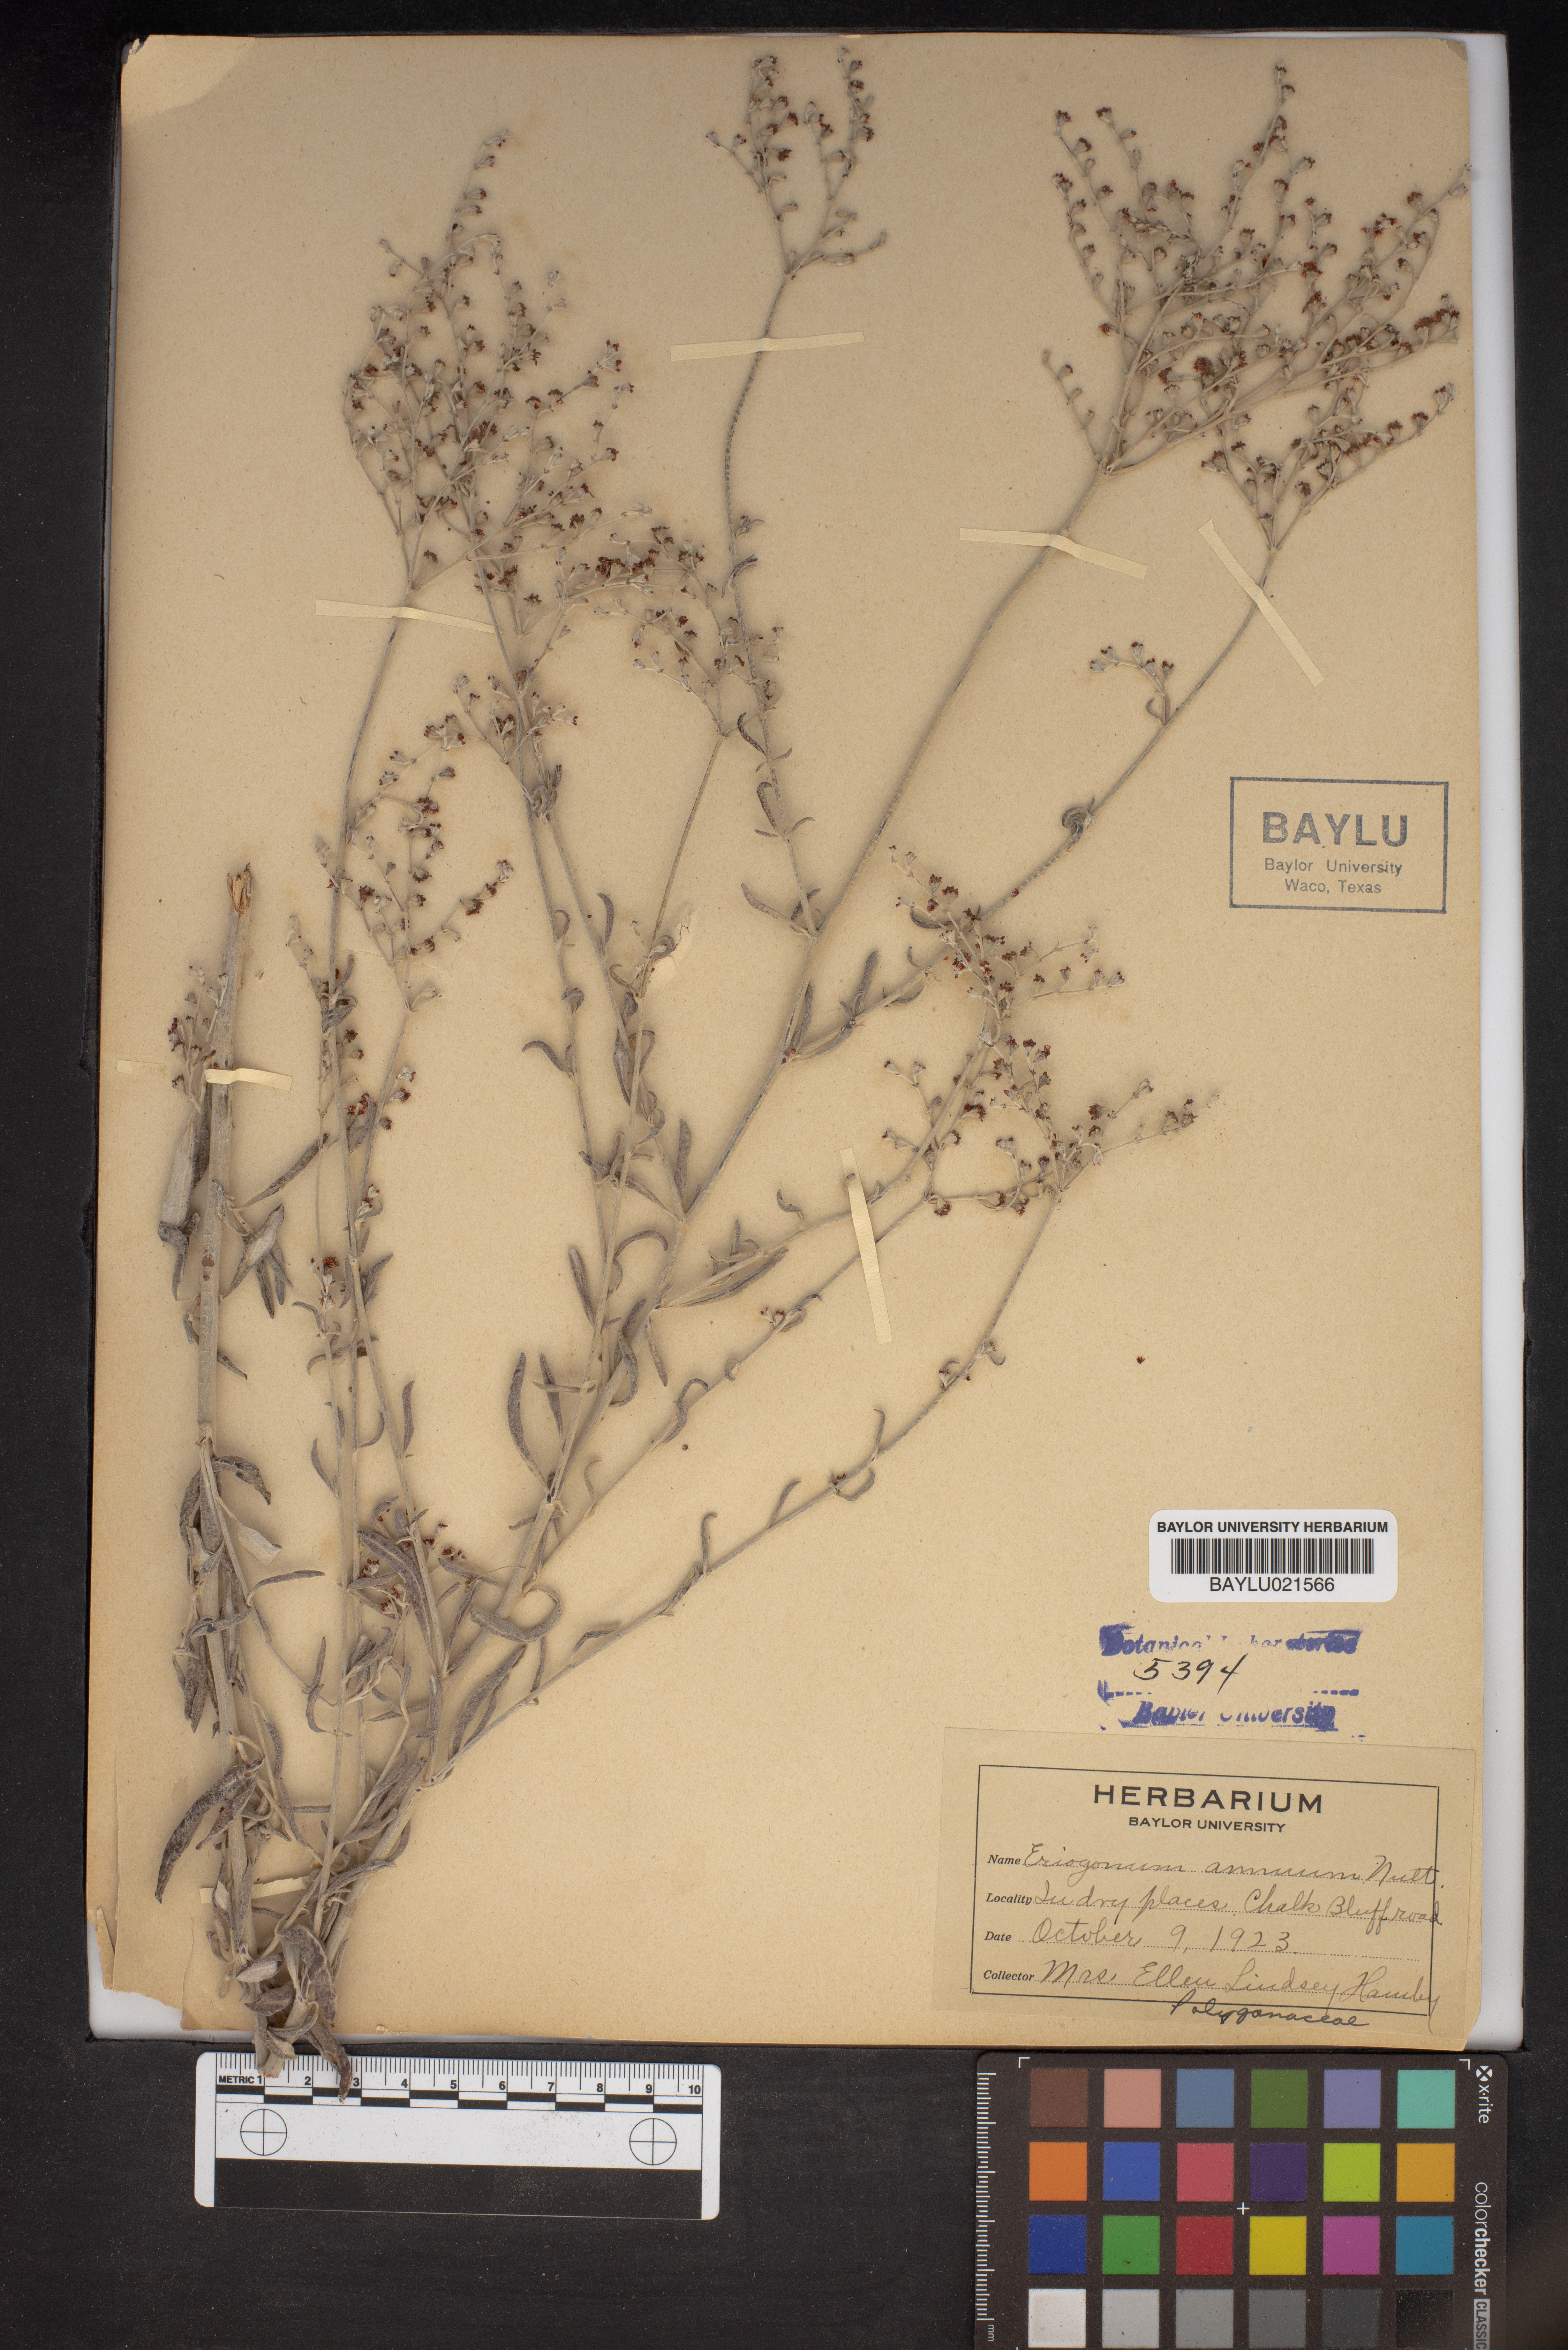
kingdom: Plantae
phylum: Tracheophyta
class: Magnoliopsida
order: Caryophyllales
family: Polygonaceae
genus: Eriogonum
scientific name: Eriogonum annuum
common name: Annual wild buckwheat
